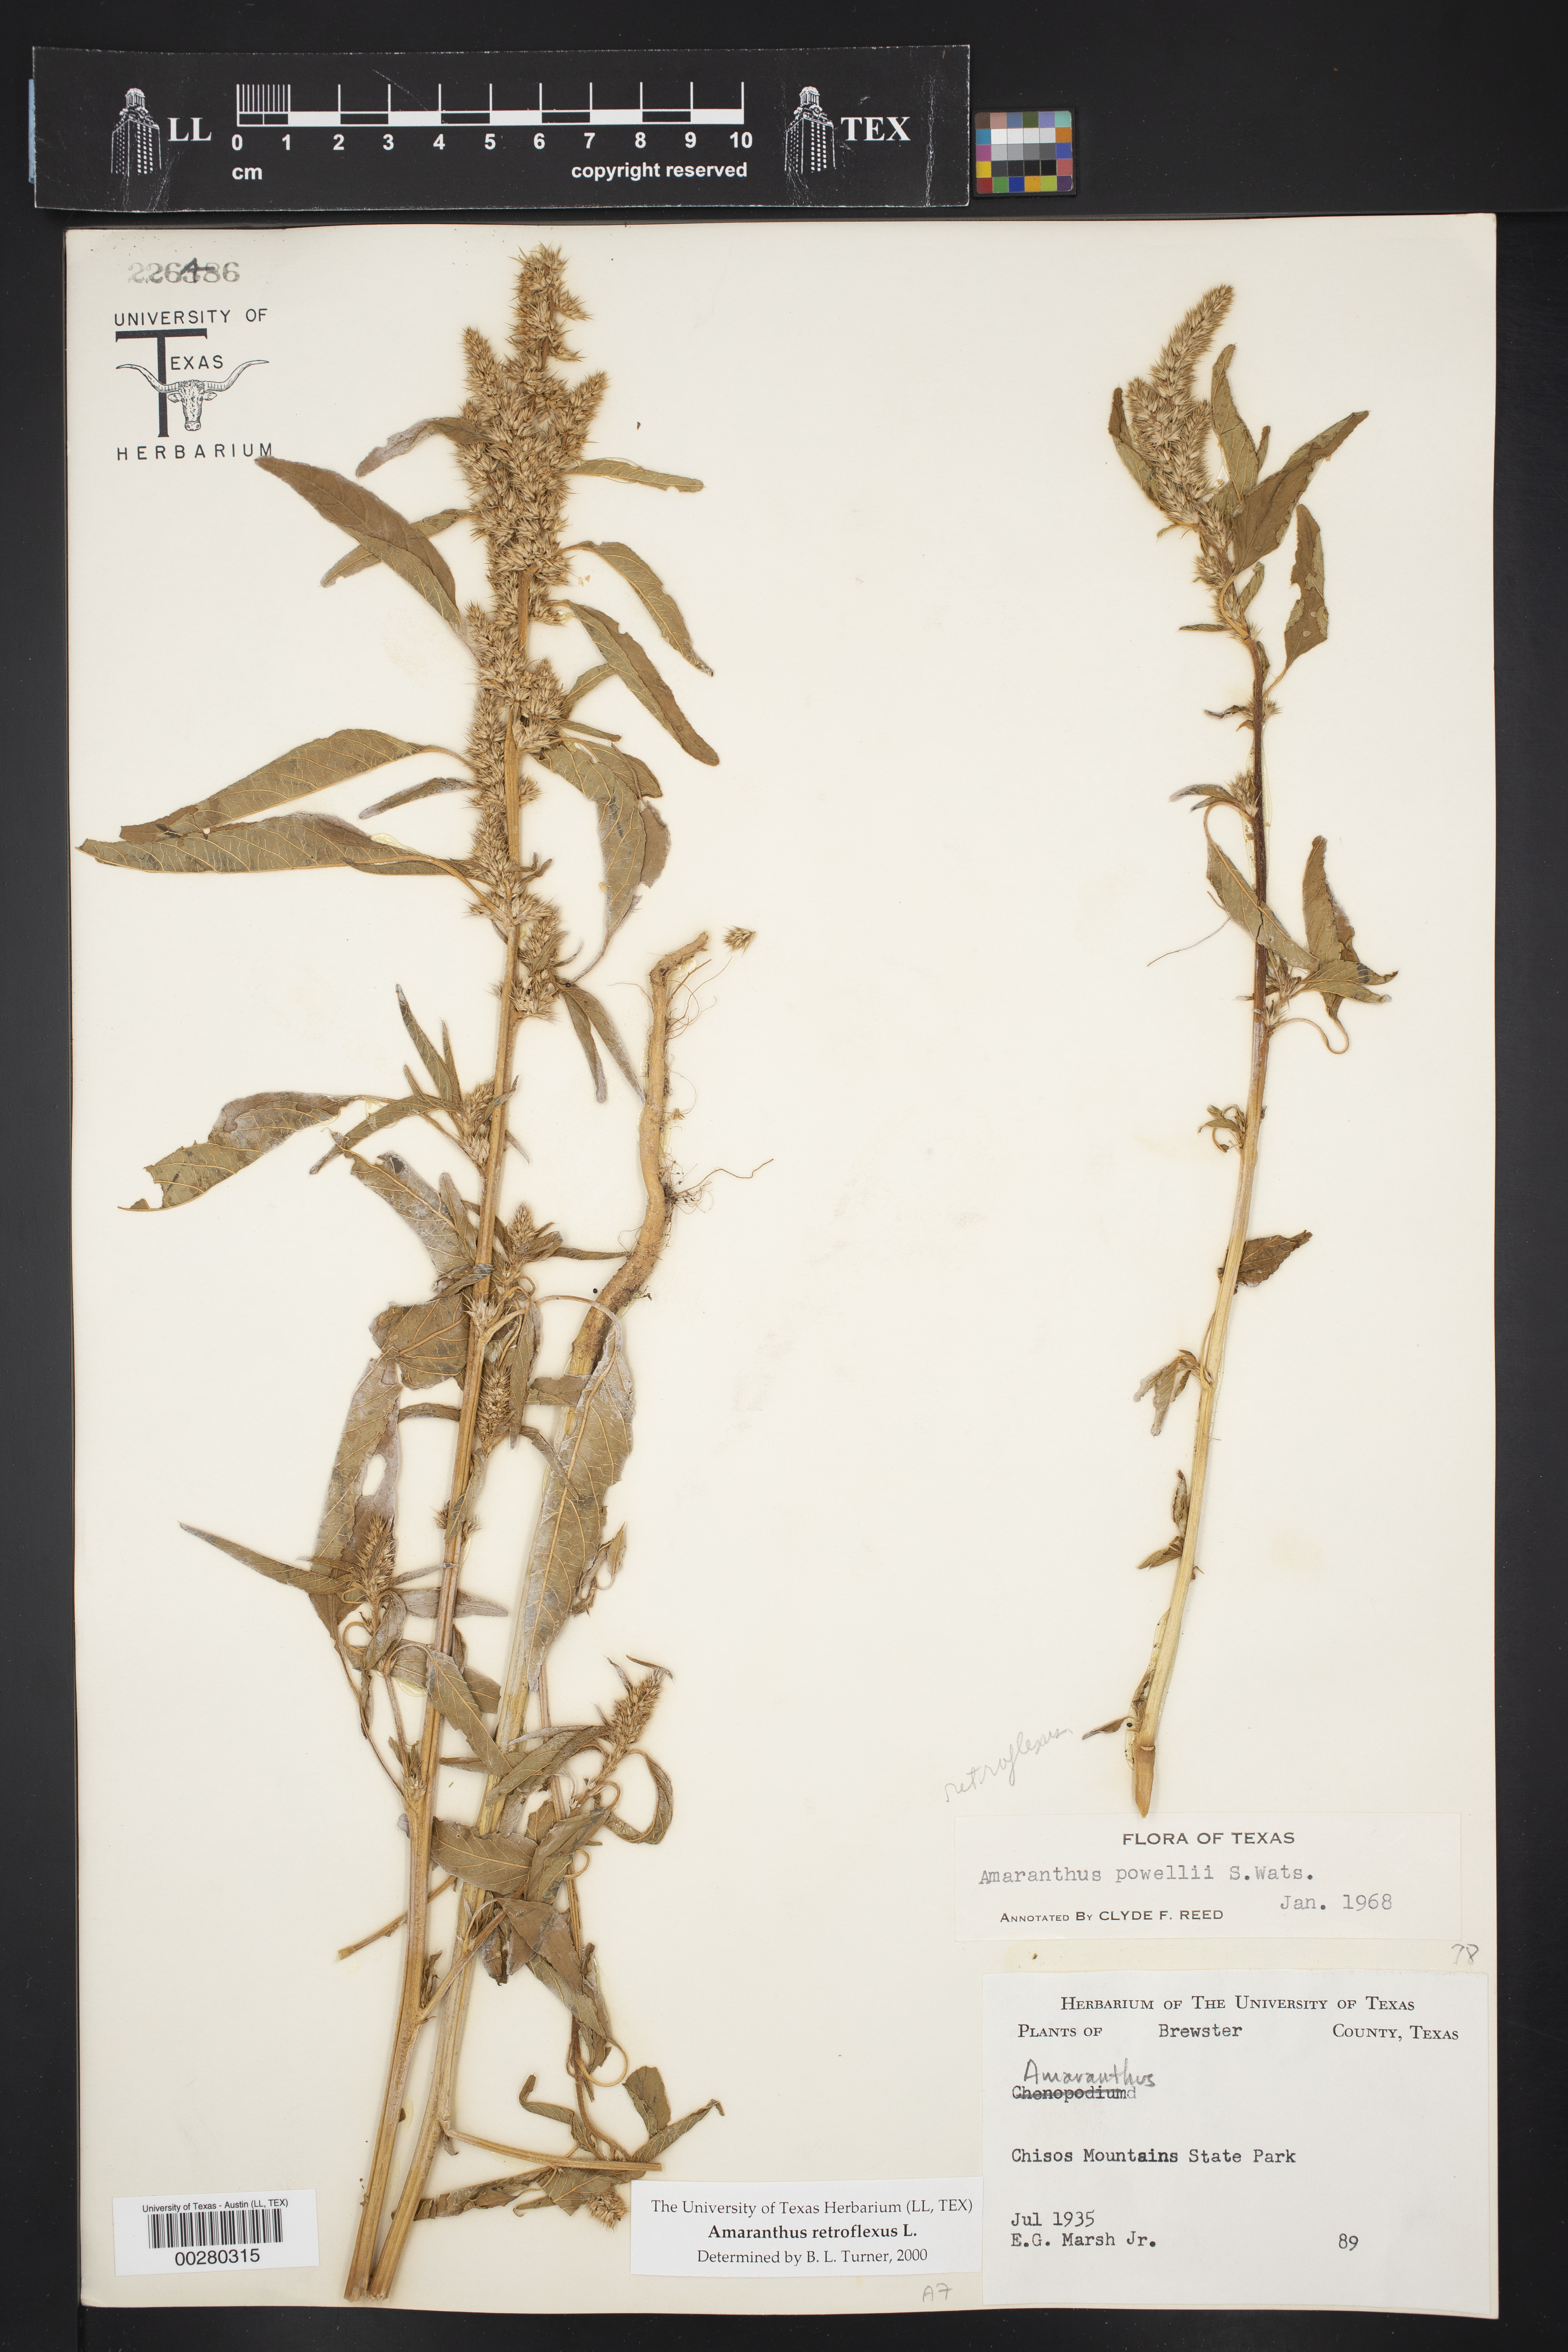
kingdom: Plantae
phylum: Tracheophyta
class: Magnoliopsida
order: Caryophyllales
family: Amaranthaceae
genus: Amaranthus
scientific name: Amaranthus retroflexus
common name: Redroot amaranth
